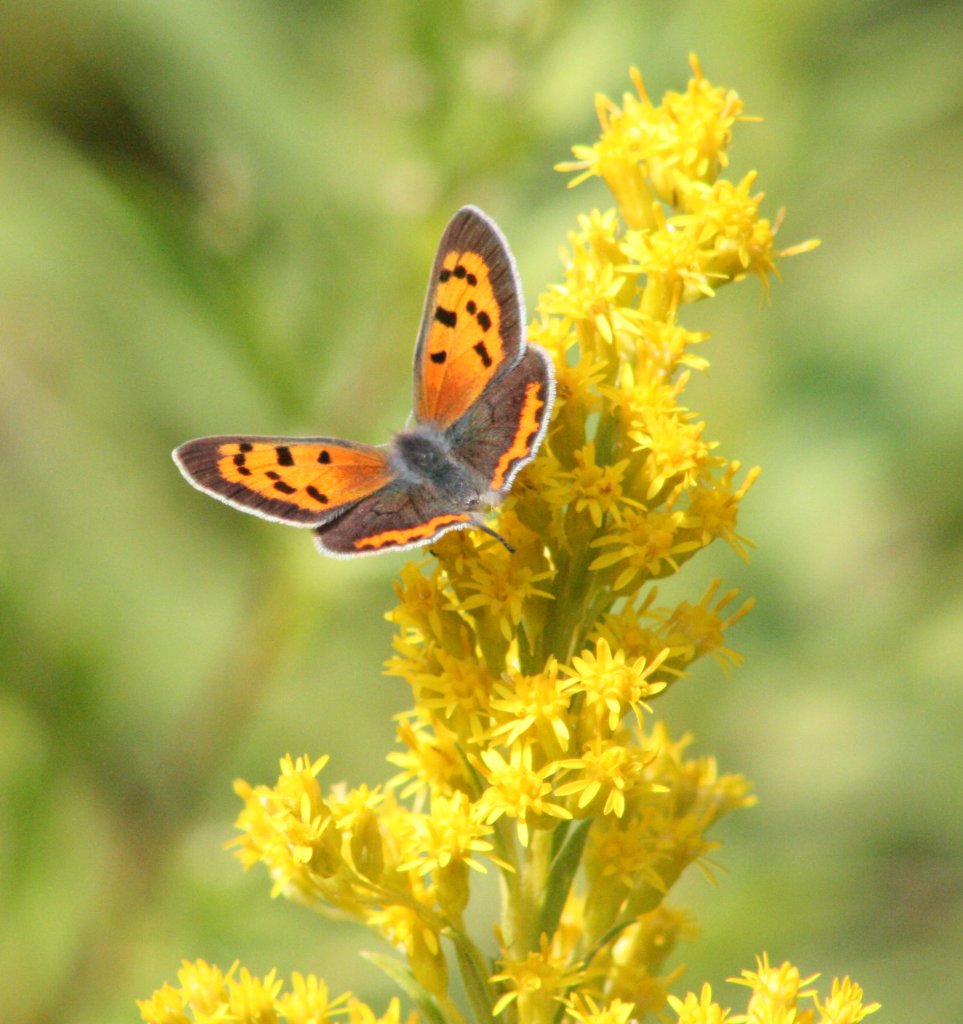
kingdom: Animalia
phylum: Arthropoda
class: Insecta
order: Lepidoptera
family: Lycaenidae
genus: Lycaena
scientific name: Lycaena phlaeas
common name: American Copper
